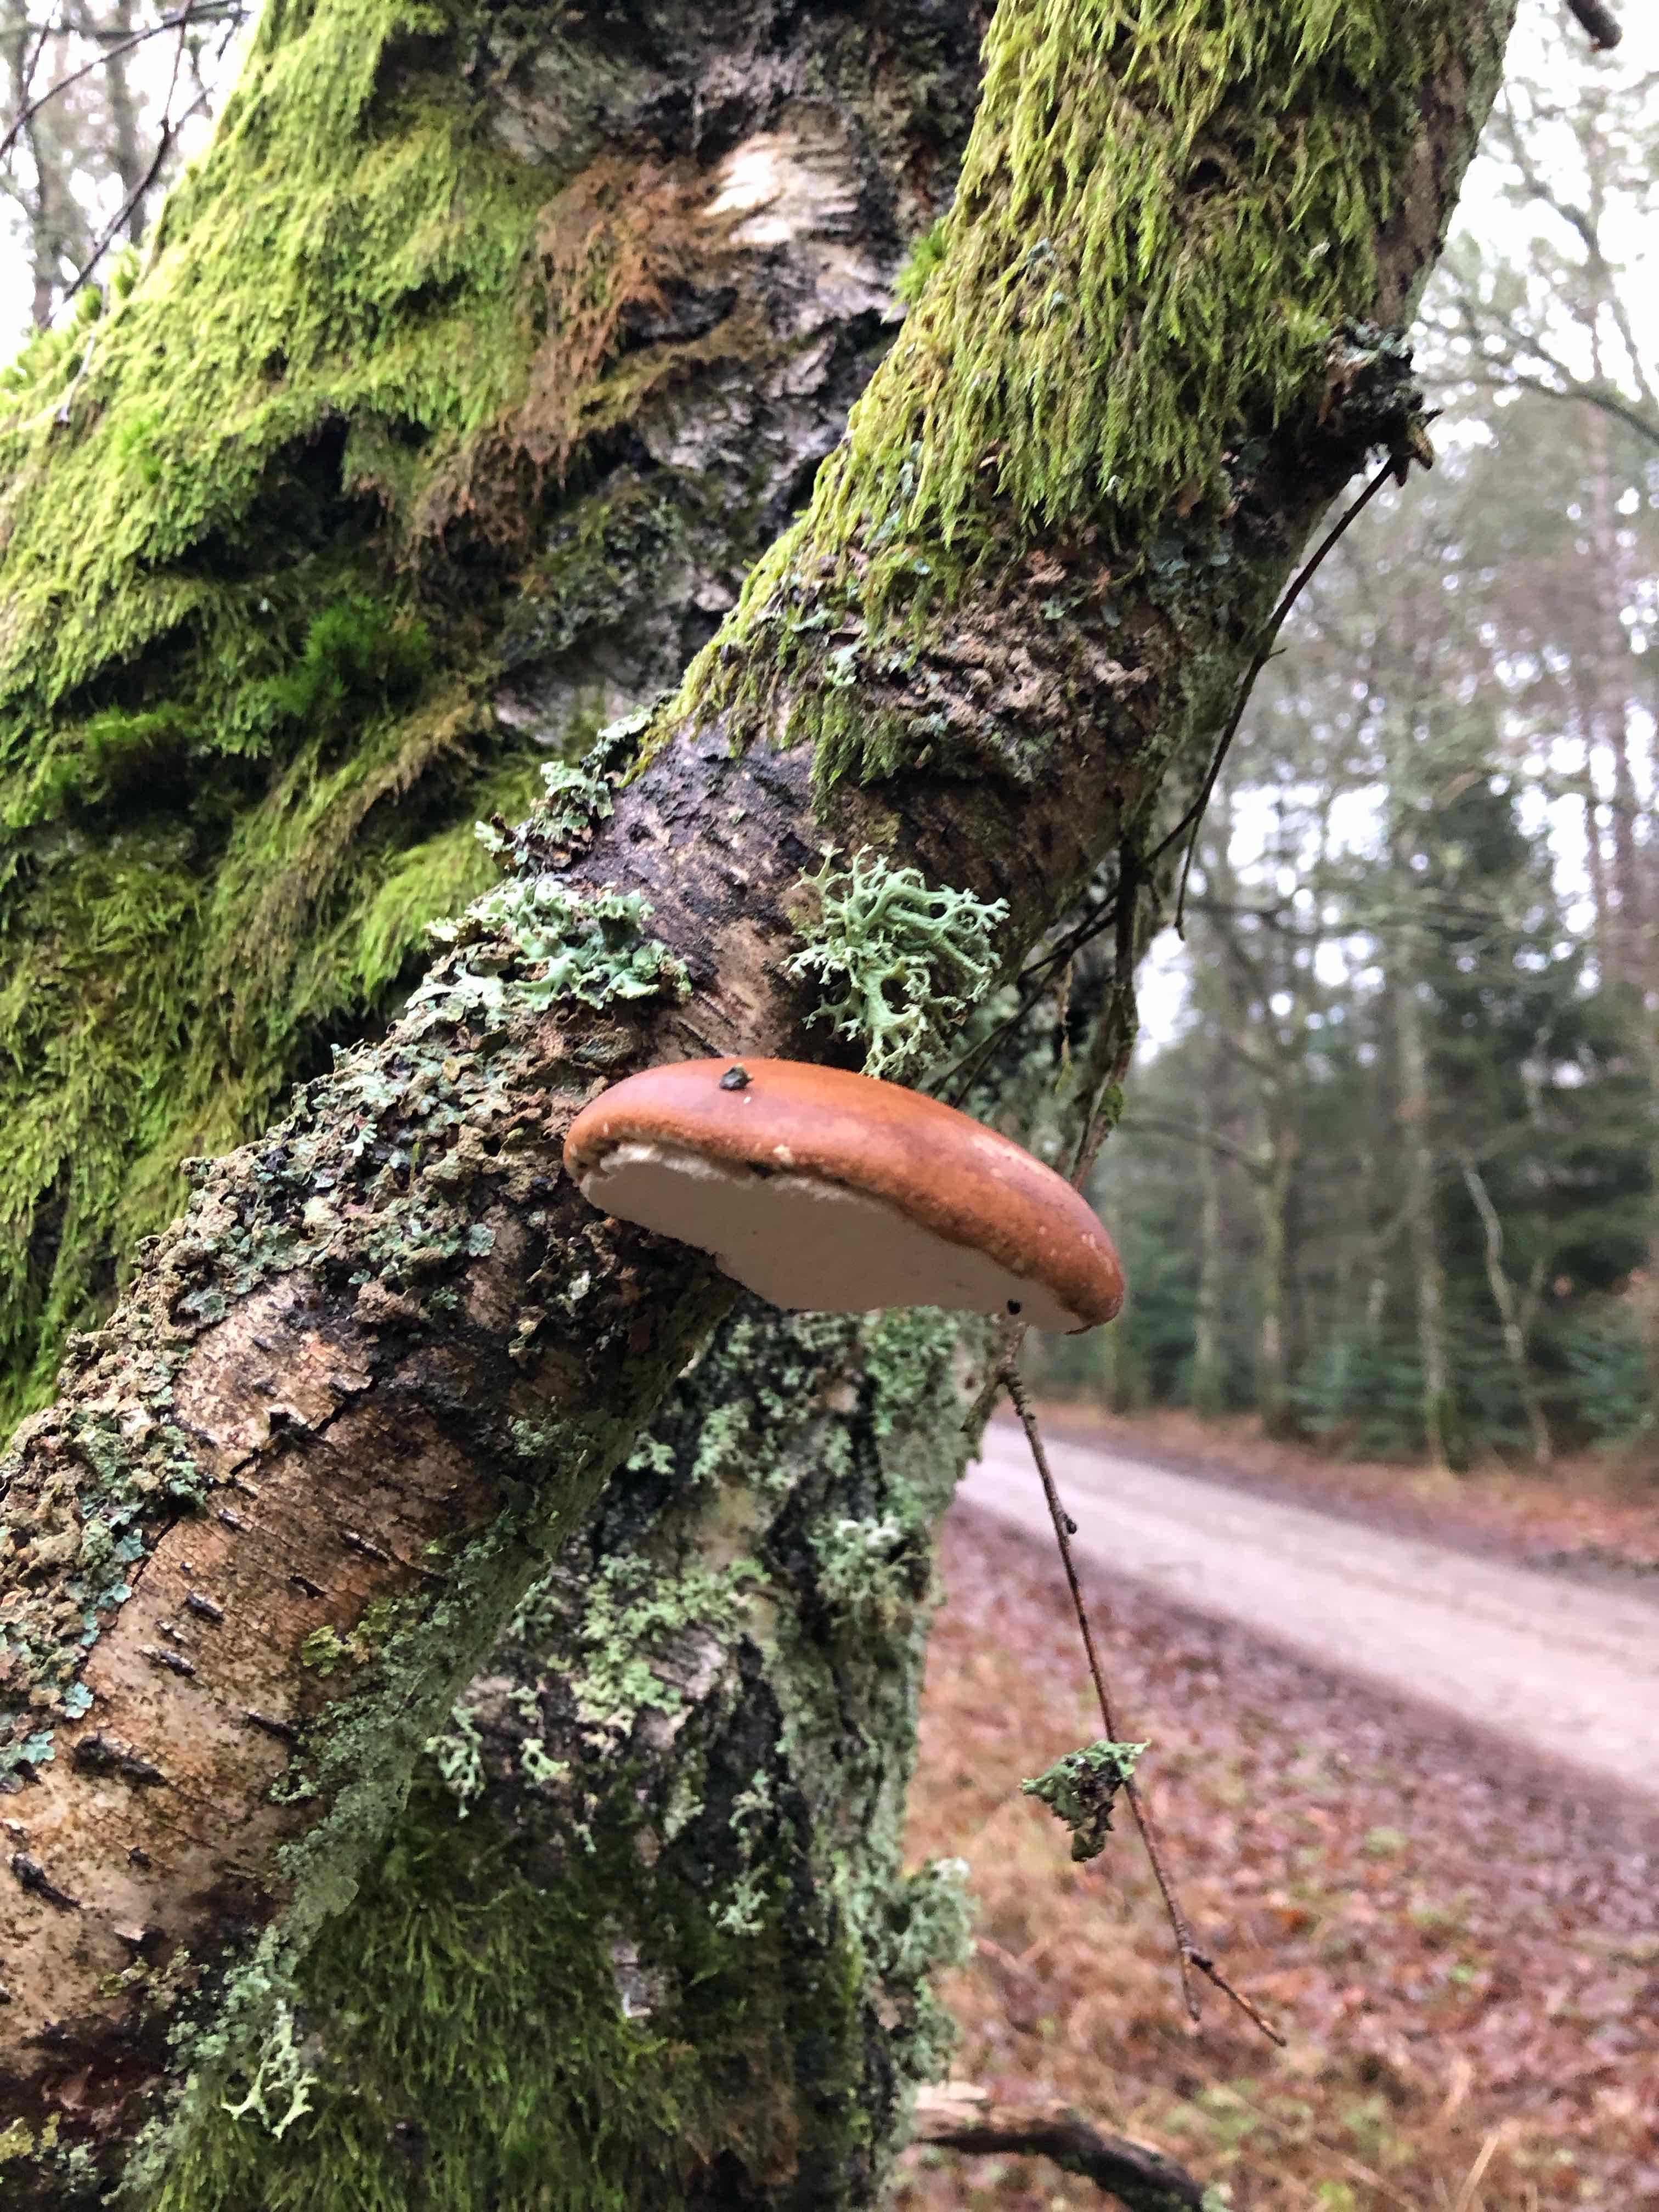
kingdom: Fungi
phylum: Basidiomycota
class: Agaricomycetes
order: Polyporales
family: Fomitopsidaceae
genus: Fomitopsis
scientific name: Fomitopsis betulina
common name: birkeporesvamp
